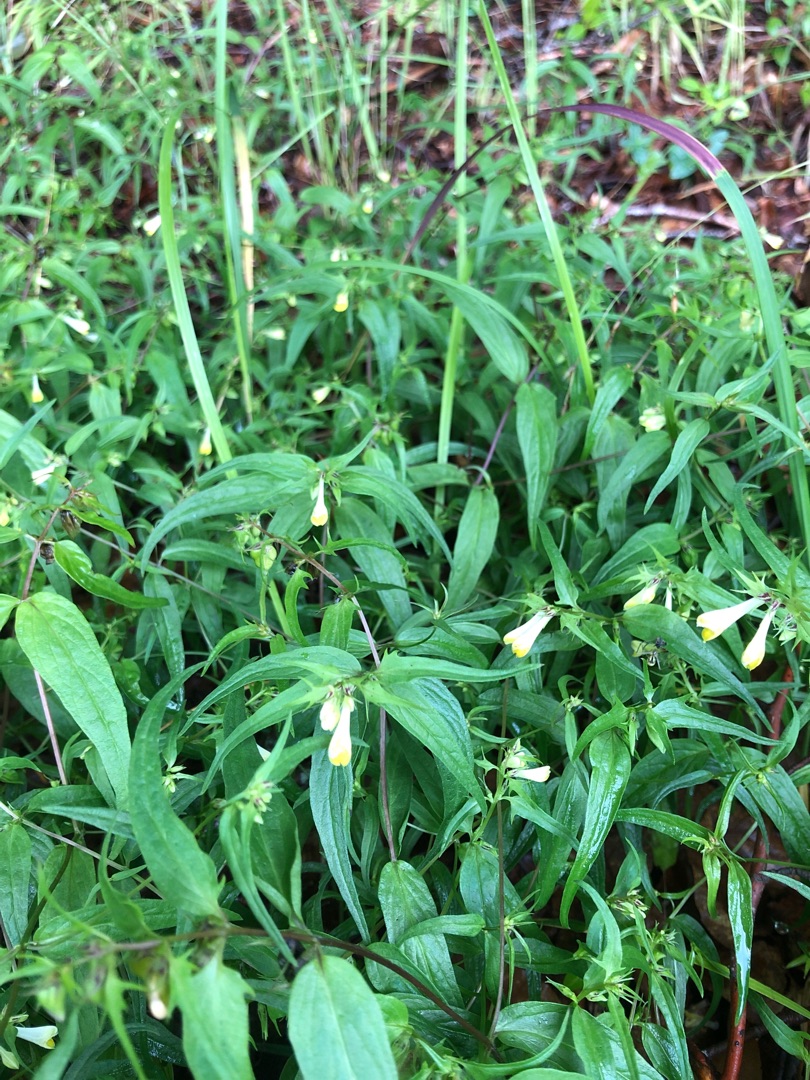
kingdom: Plantae
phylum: Tracheophyta
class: Magnoliopsida
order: Lamiales
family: Orobanchaceae
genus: Melampyrum
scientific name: Melampyrum pratense
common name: Almindelig kohvede
